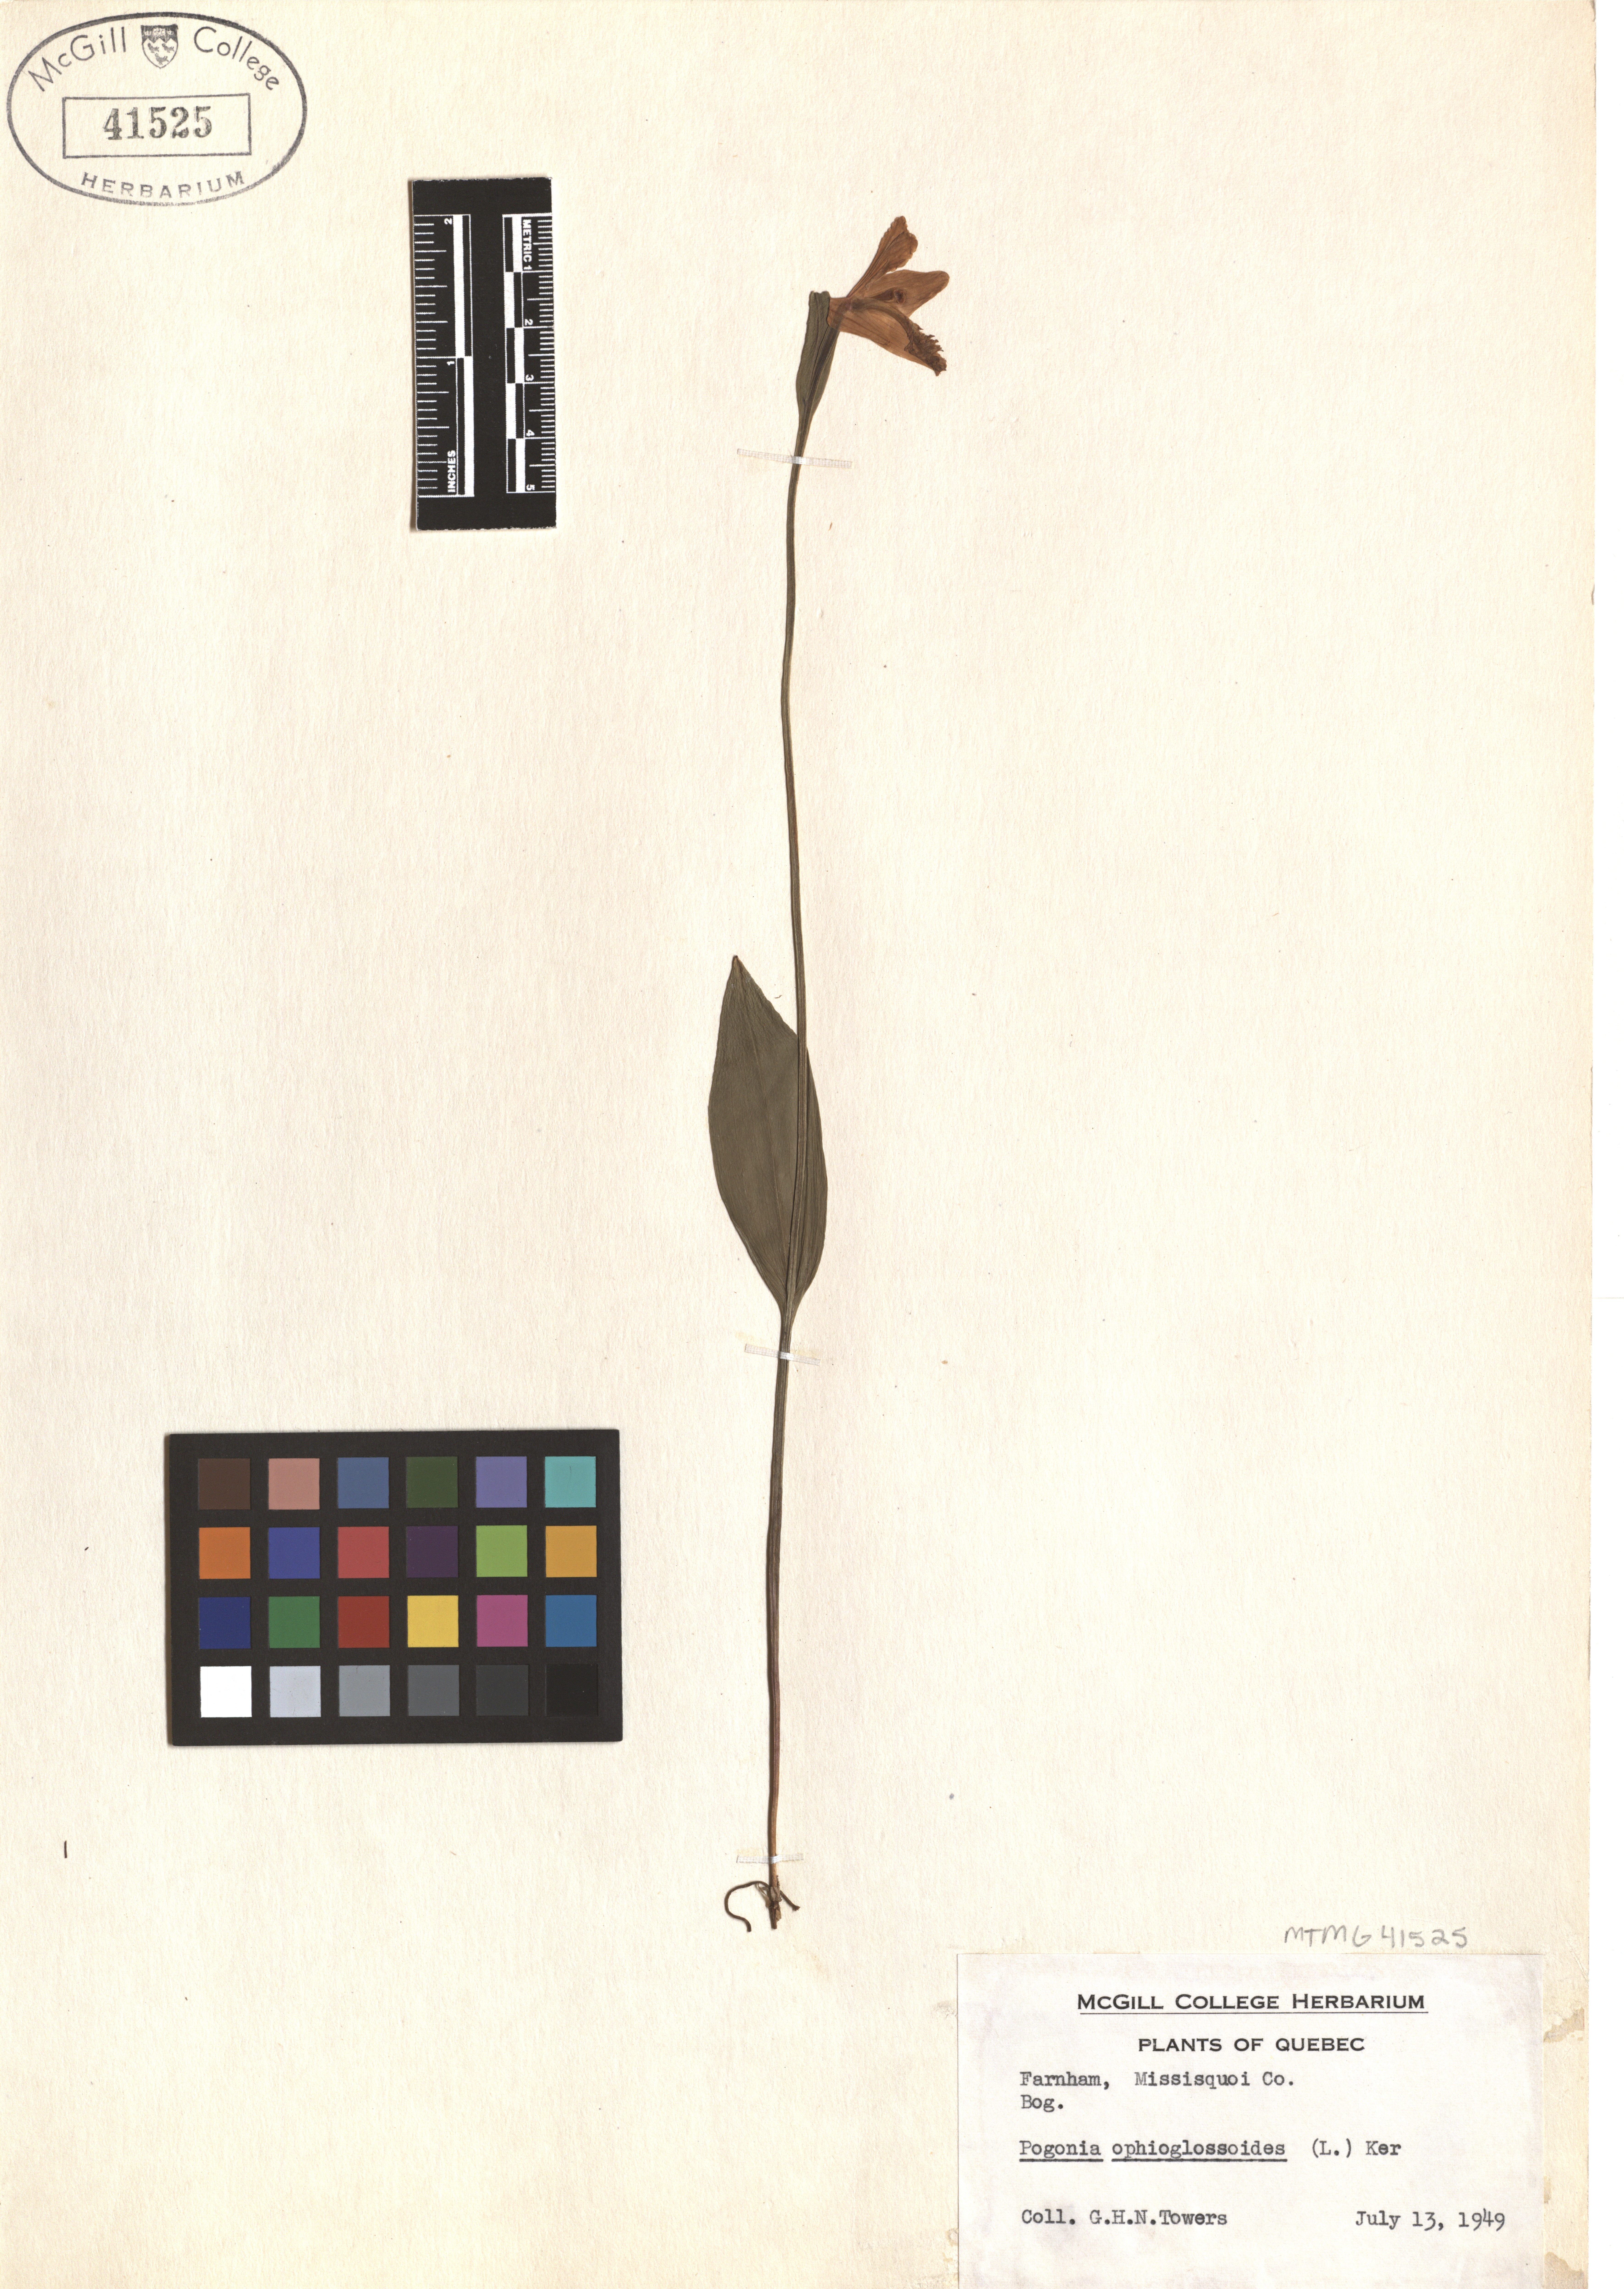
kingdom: Plantae
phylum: Tracheophyta
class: Liliopsida
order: Asparagales
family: Orchidaceae
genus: Pogonia
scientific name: Pogonia ophioglossoides
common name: Rose pogonia
